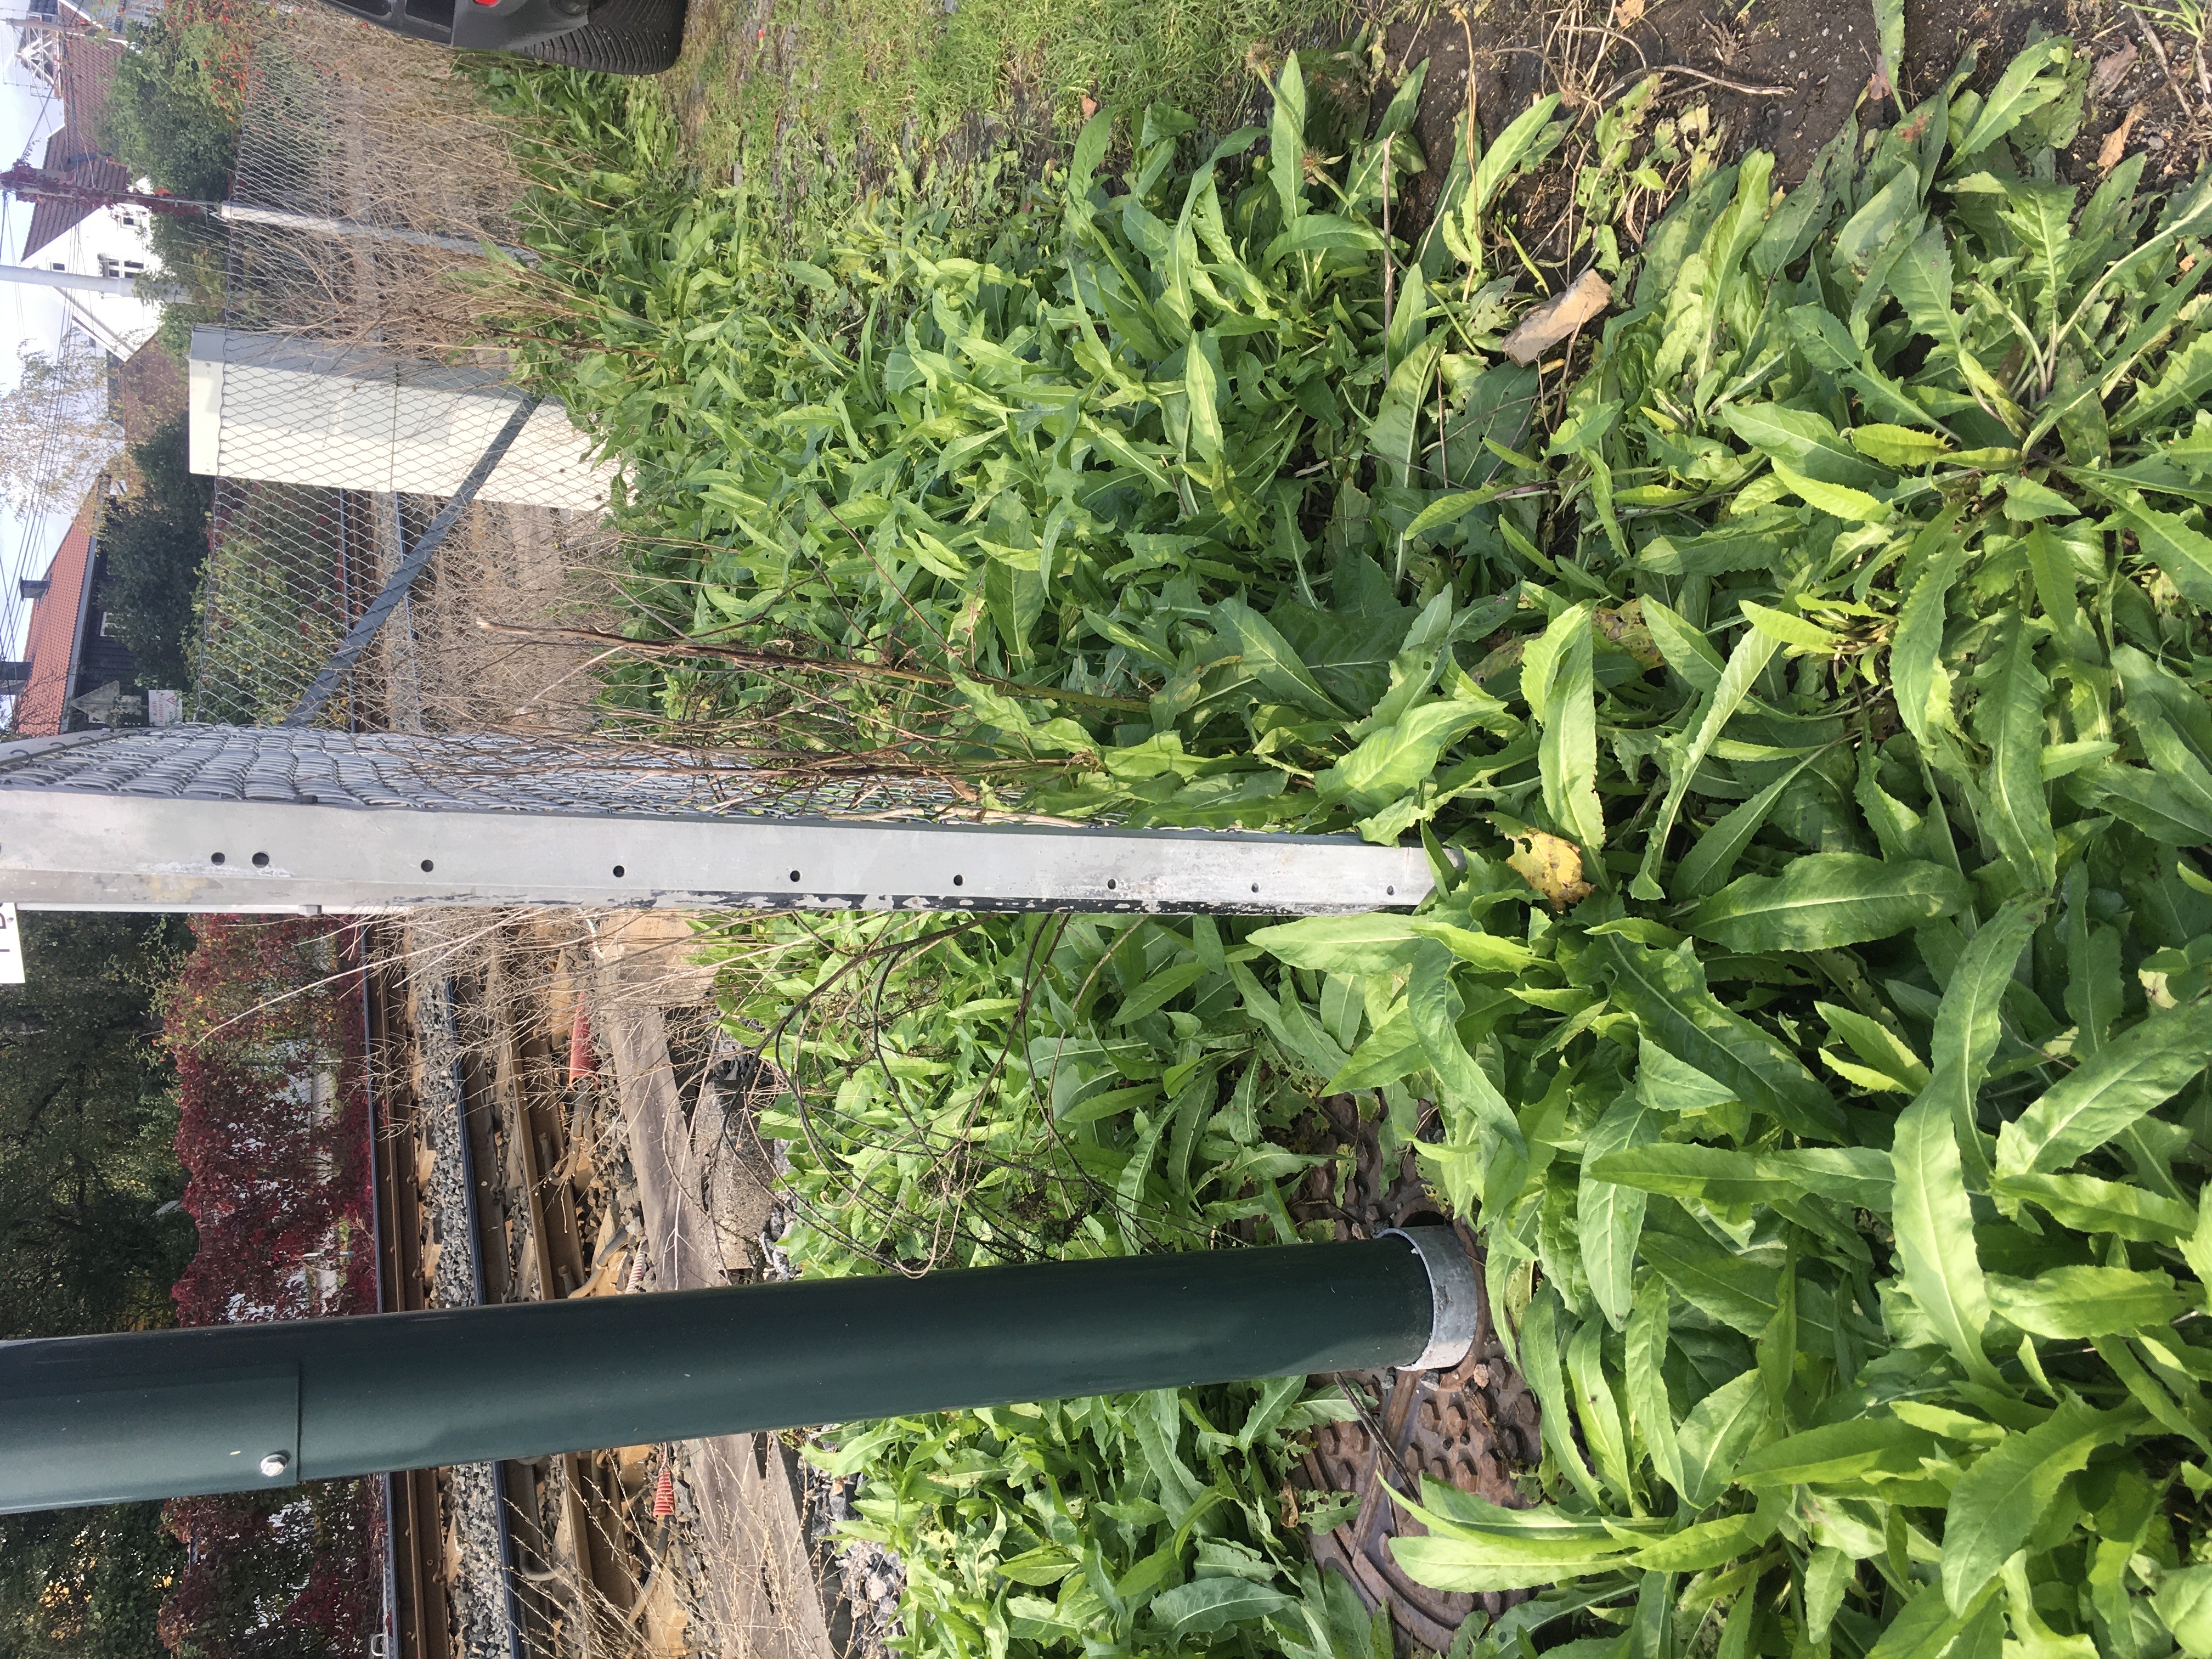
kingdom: Plantae
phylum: Tracheophyta
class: Magnoliopsida
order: Brassicales
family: Brassicaceae
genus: Bunias
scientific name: Bunias orientalis
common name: russekål
